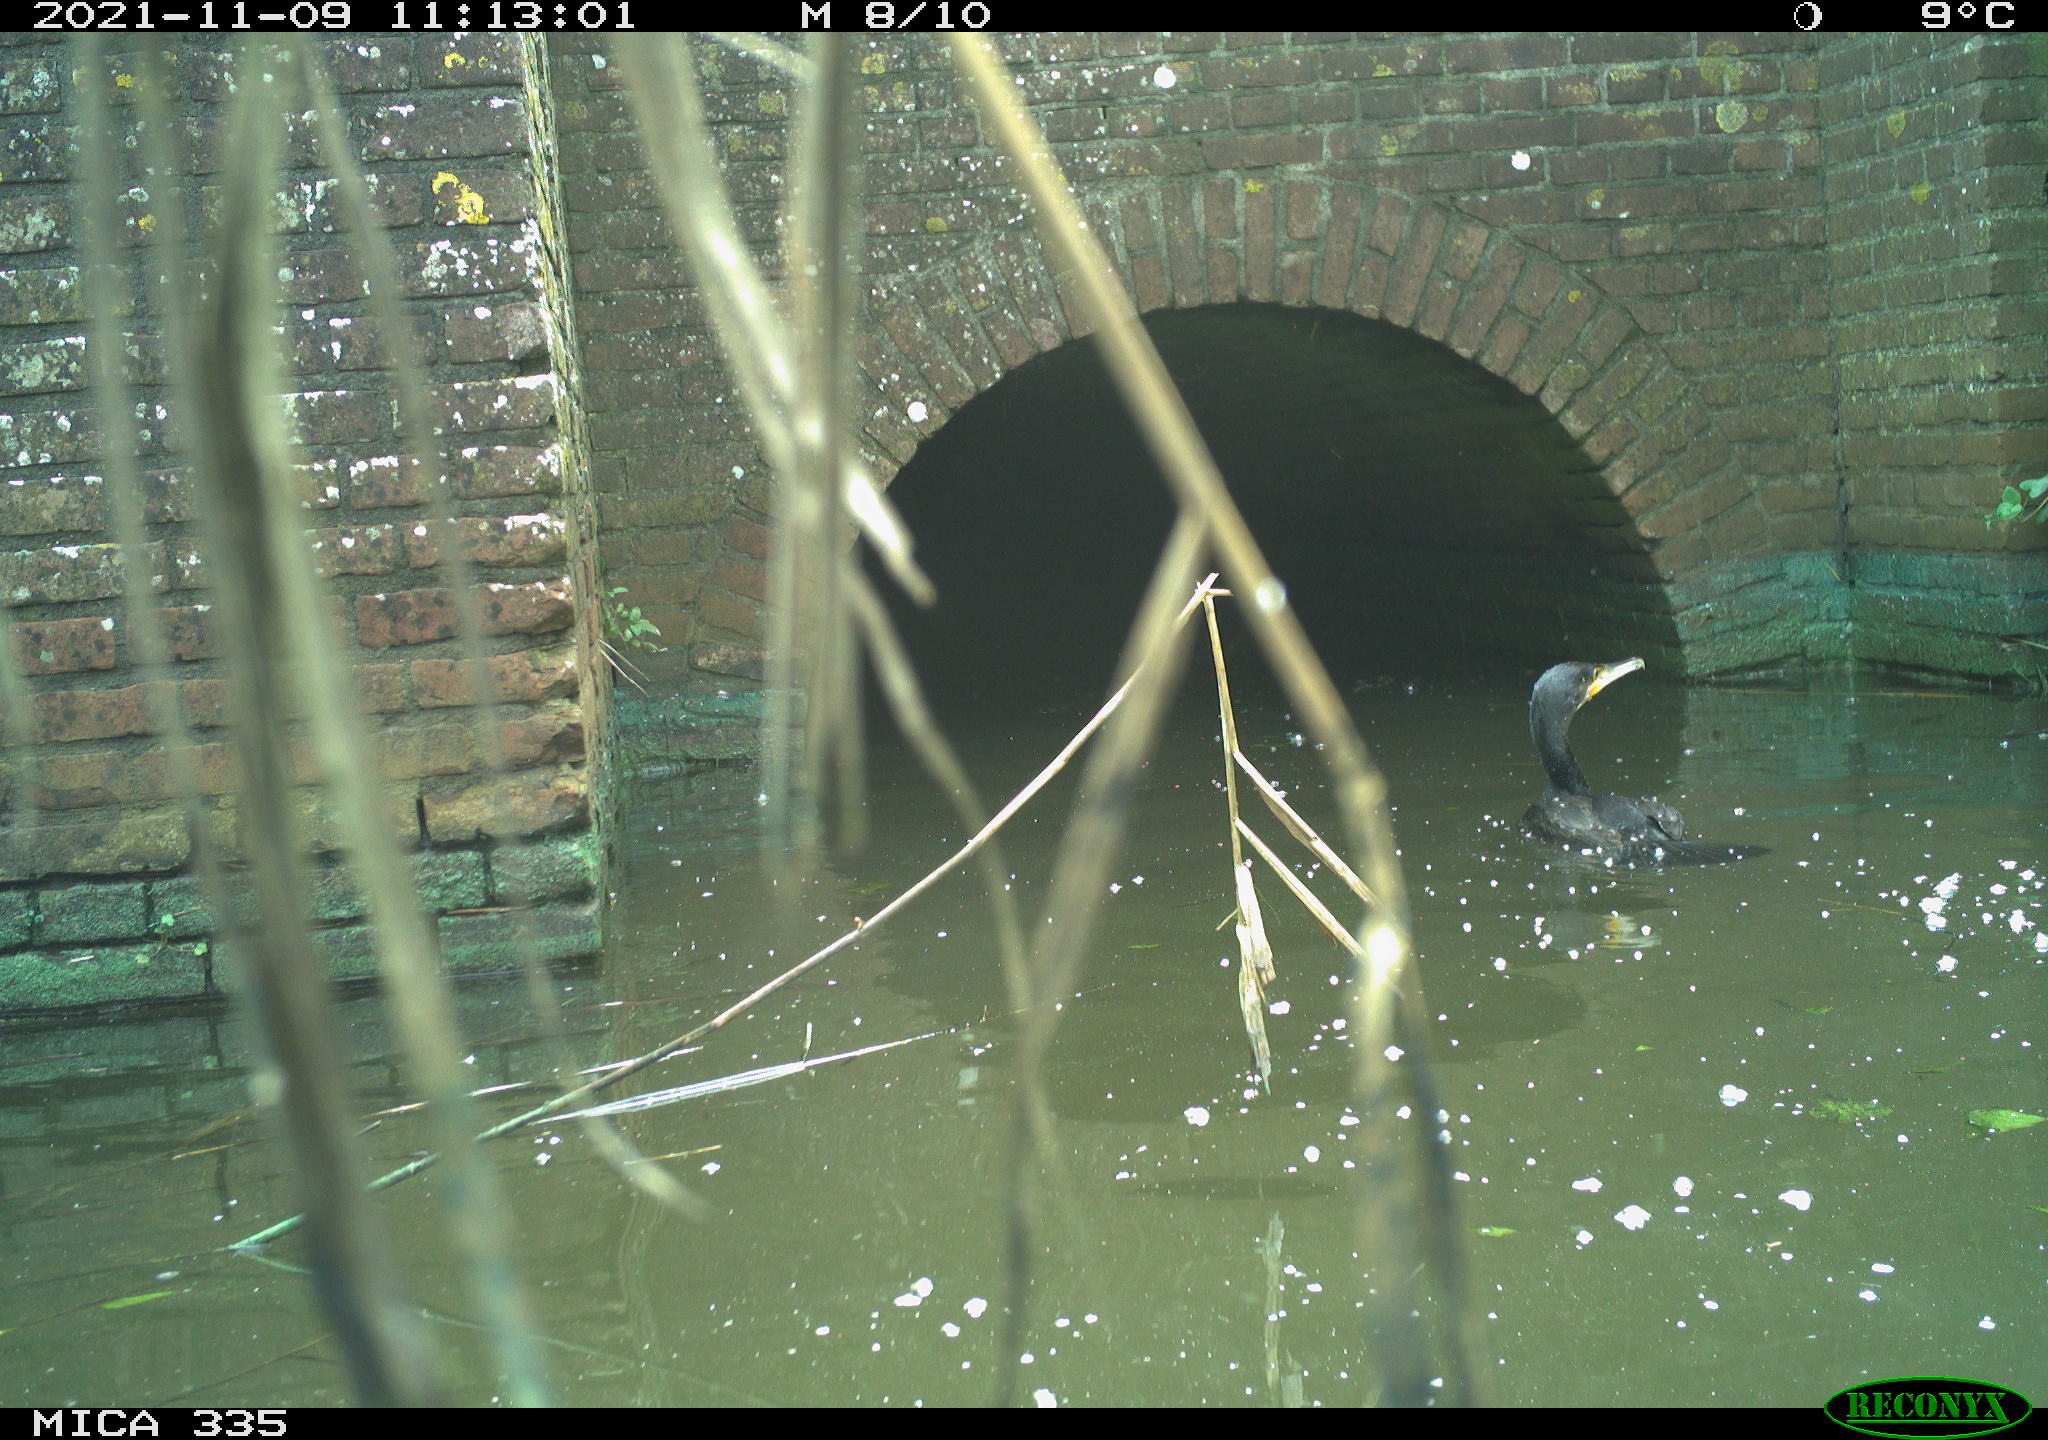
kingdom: Animalia
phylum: Chordata
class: Aves
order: Suliformes
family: Phalacrocoracidae
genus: Phalacrocorax
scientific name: Phalacrocorax carbo
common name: Great cormorant
